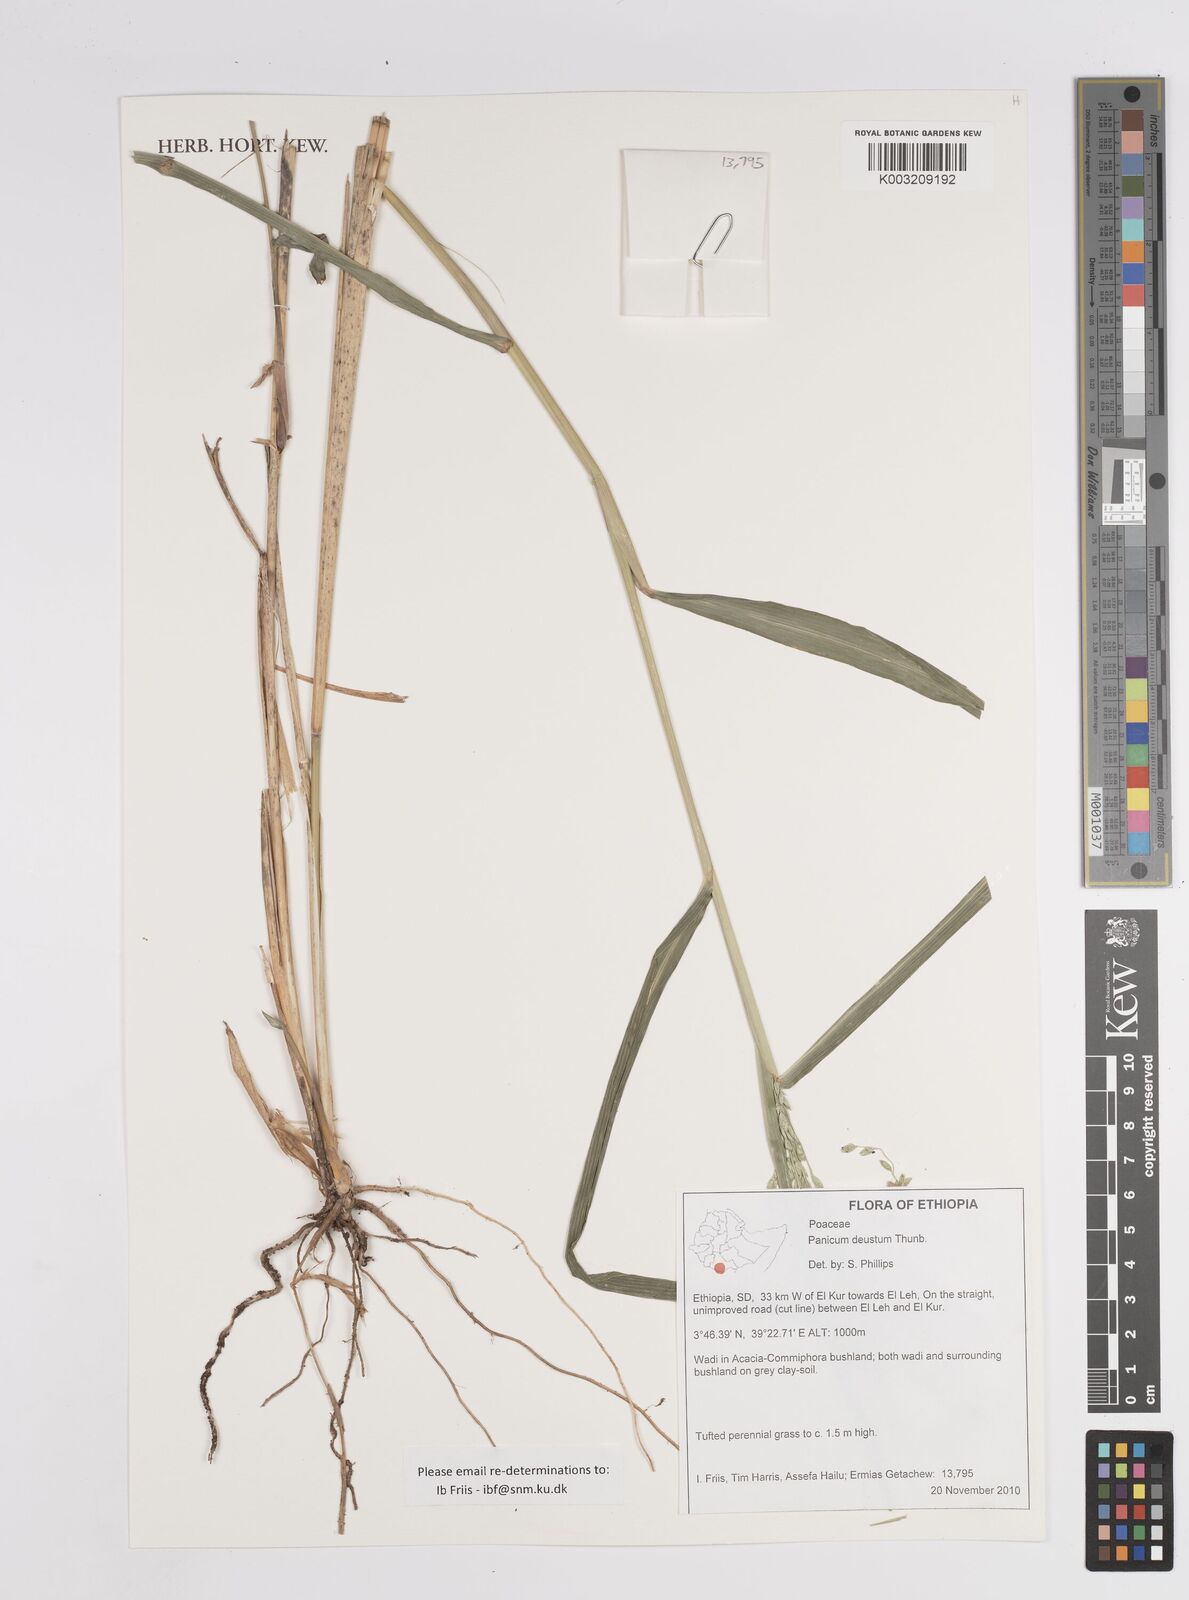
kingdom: Plantae
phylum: Tracheophyta
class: Liliopsida
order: Poales
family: Poaceae
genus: Panicum
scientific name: Panicum
